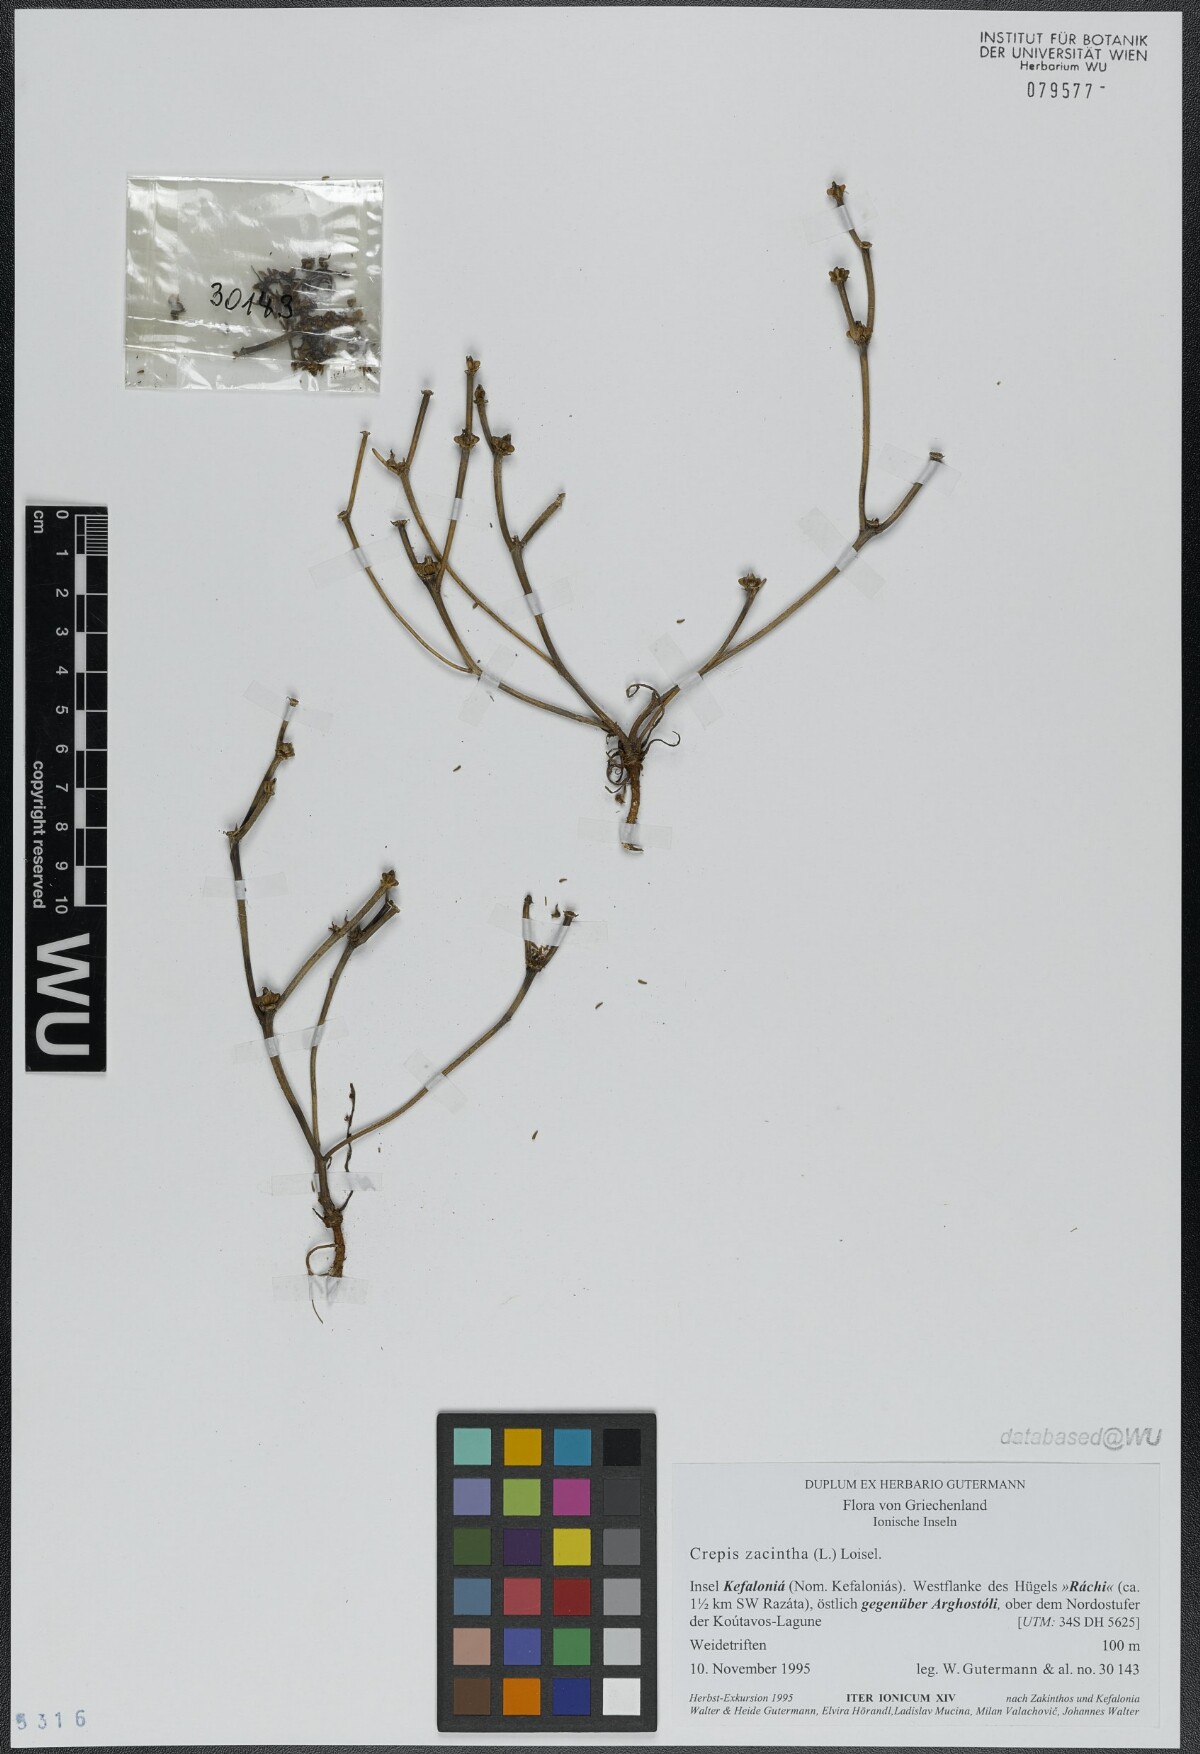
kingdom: Plantae
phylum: Tracheophyta
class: Magnoliopsida
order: Asterales
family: Asteraceae
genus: Crepis
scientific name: Crepis zacintha
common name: Striped hawksbeard
